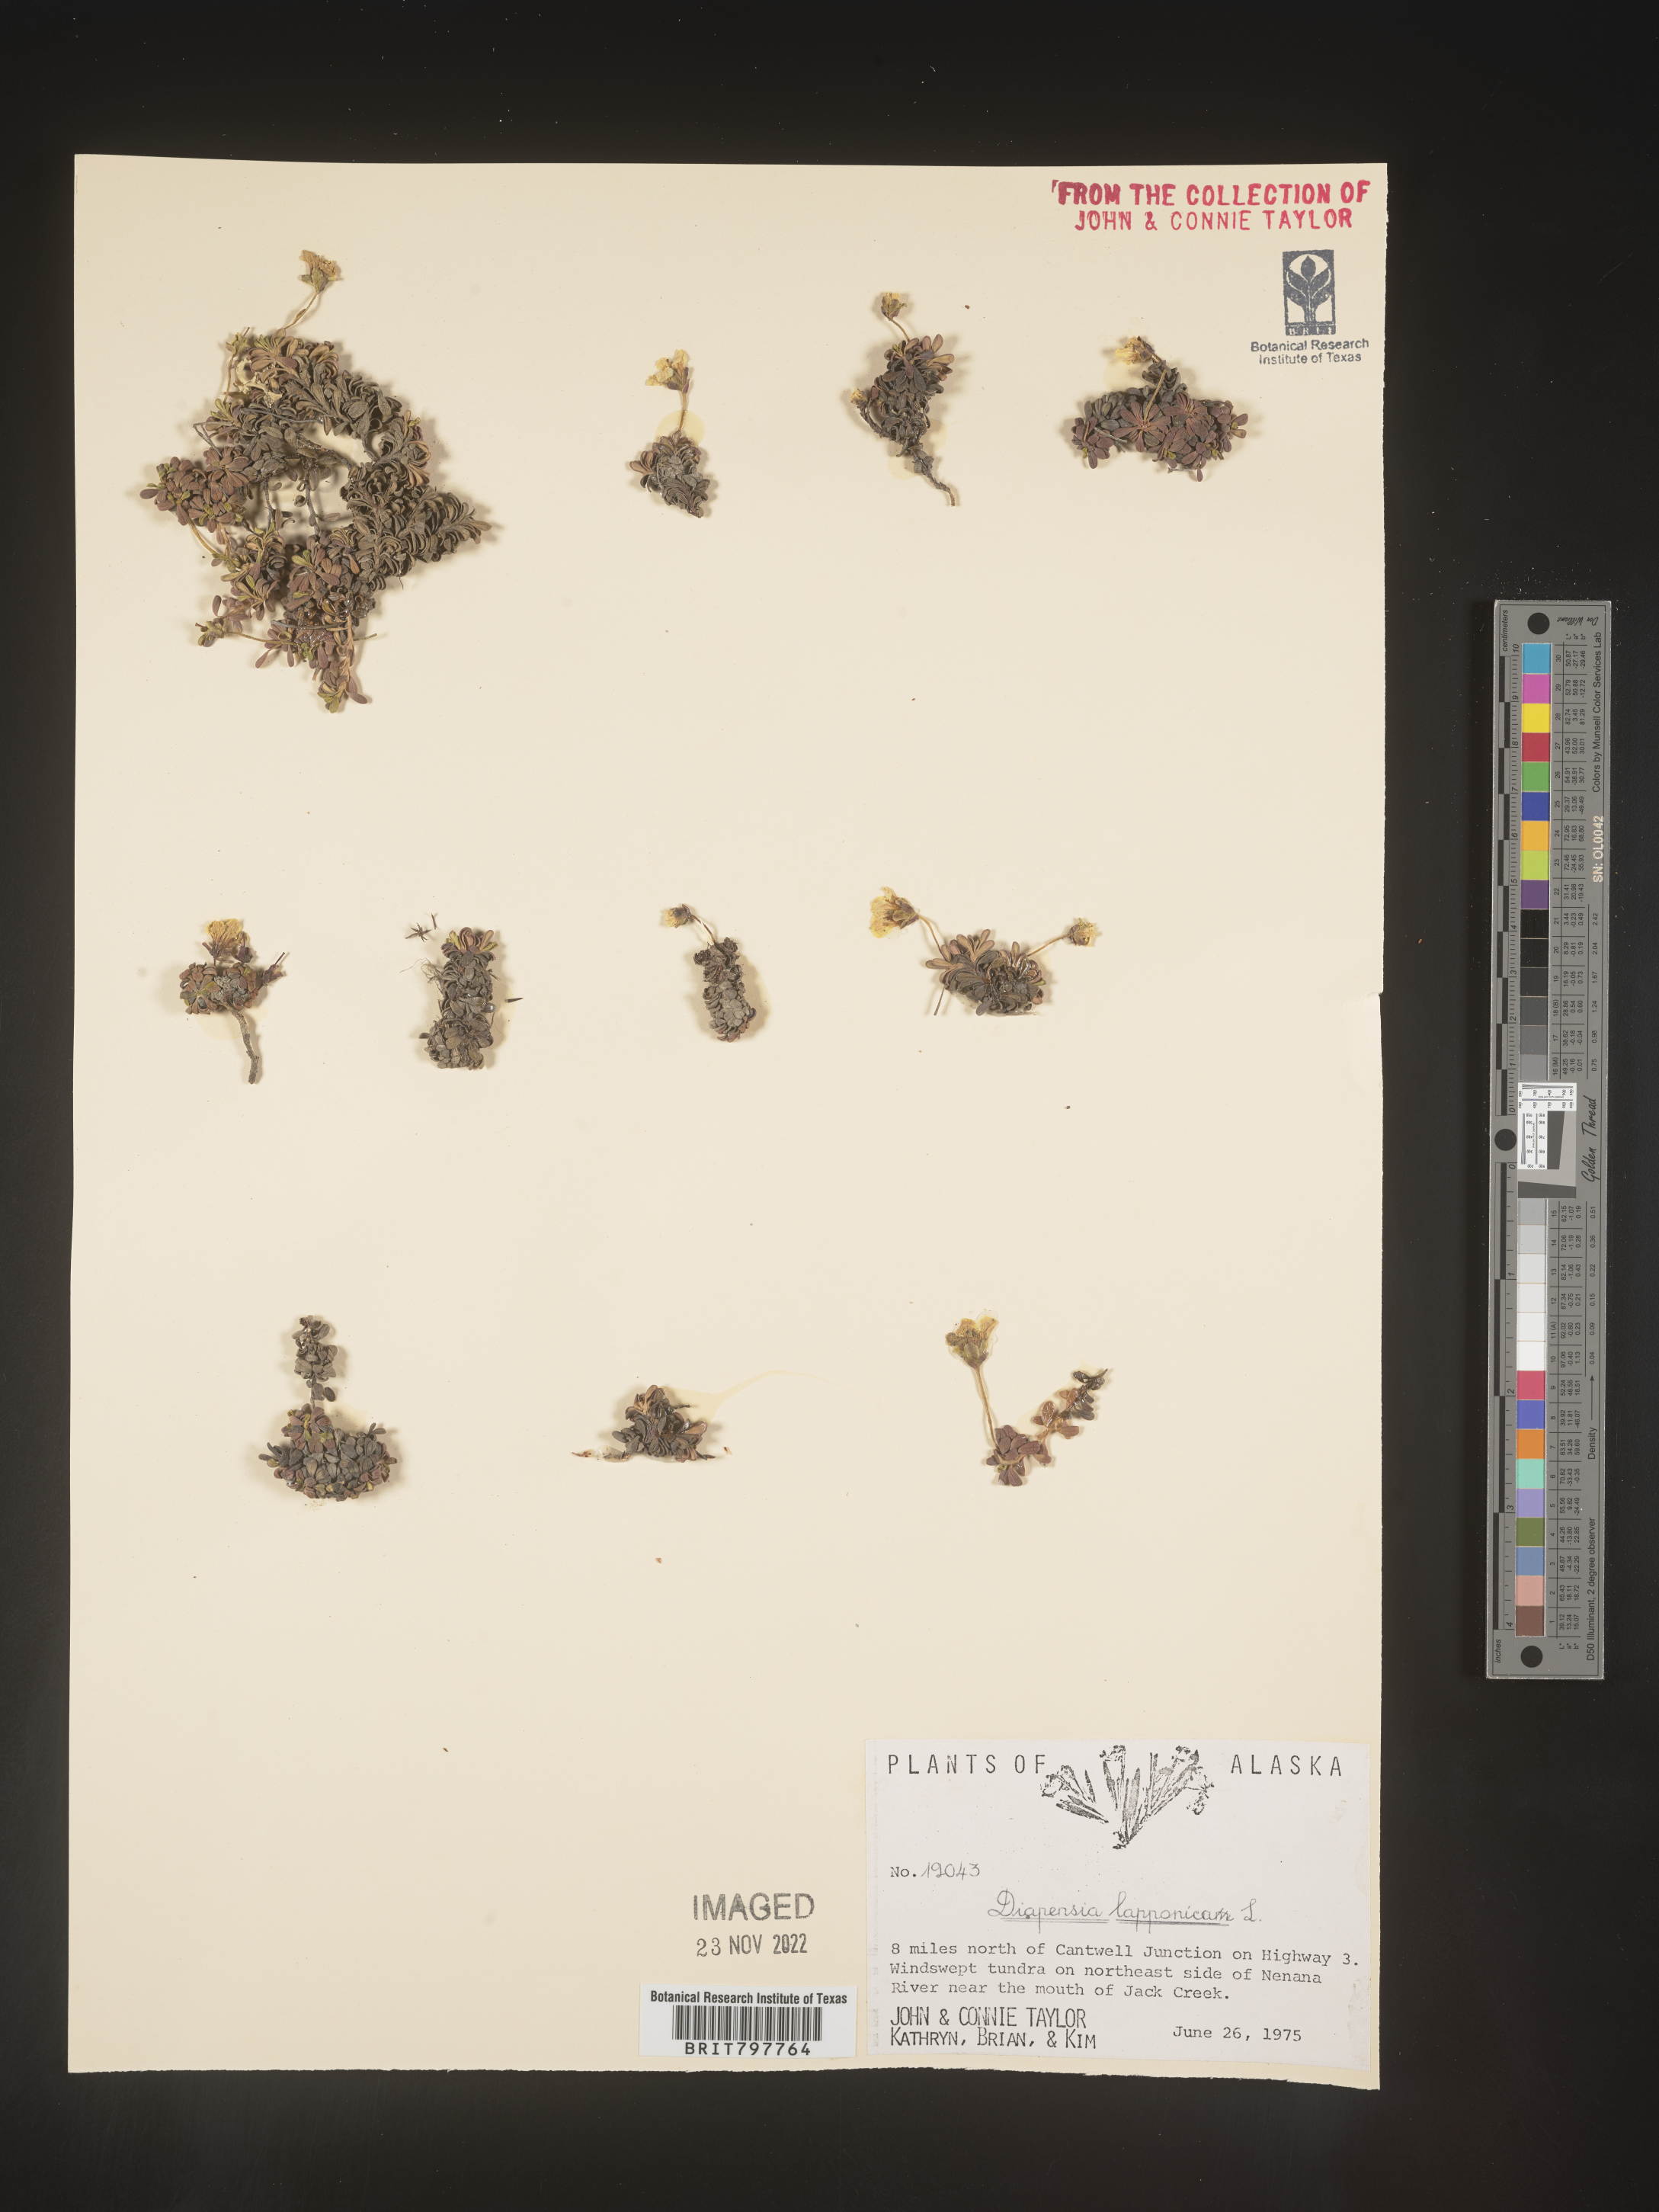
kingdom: Plantae
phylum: Tracheophyta
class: Magnoliopsida
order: Ericales
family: Diapensiaceae
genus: Diapensia
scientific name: Diapensia obovata
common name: Alaska diapensia
